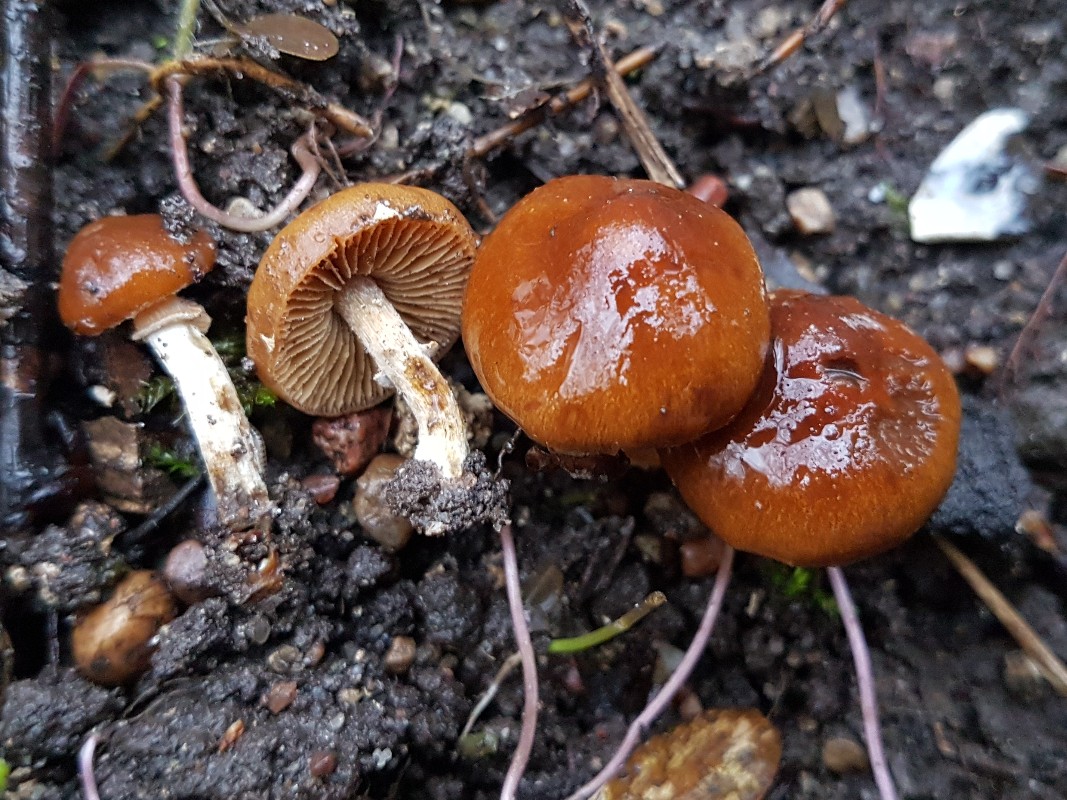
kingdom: Fungi
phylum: Basidiomycota
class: Agaricomycetes
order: Agaricales
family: Bolbitiaceae
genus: Conocybe
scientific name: Conocybe aporos
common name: tidlig dansehat
